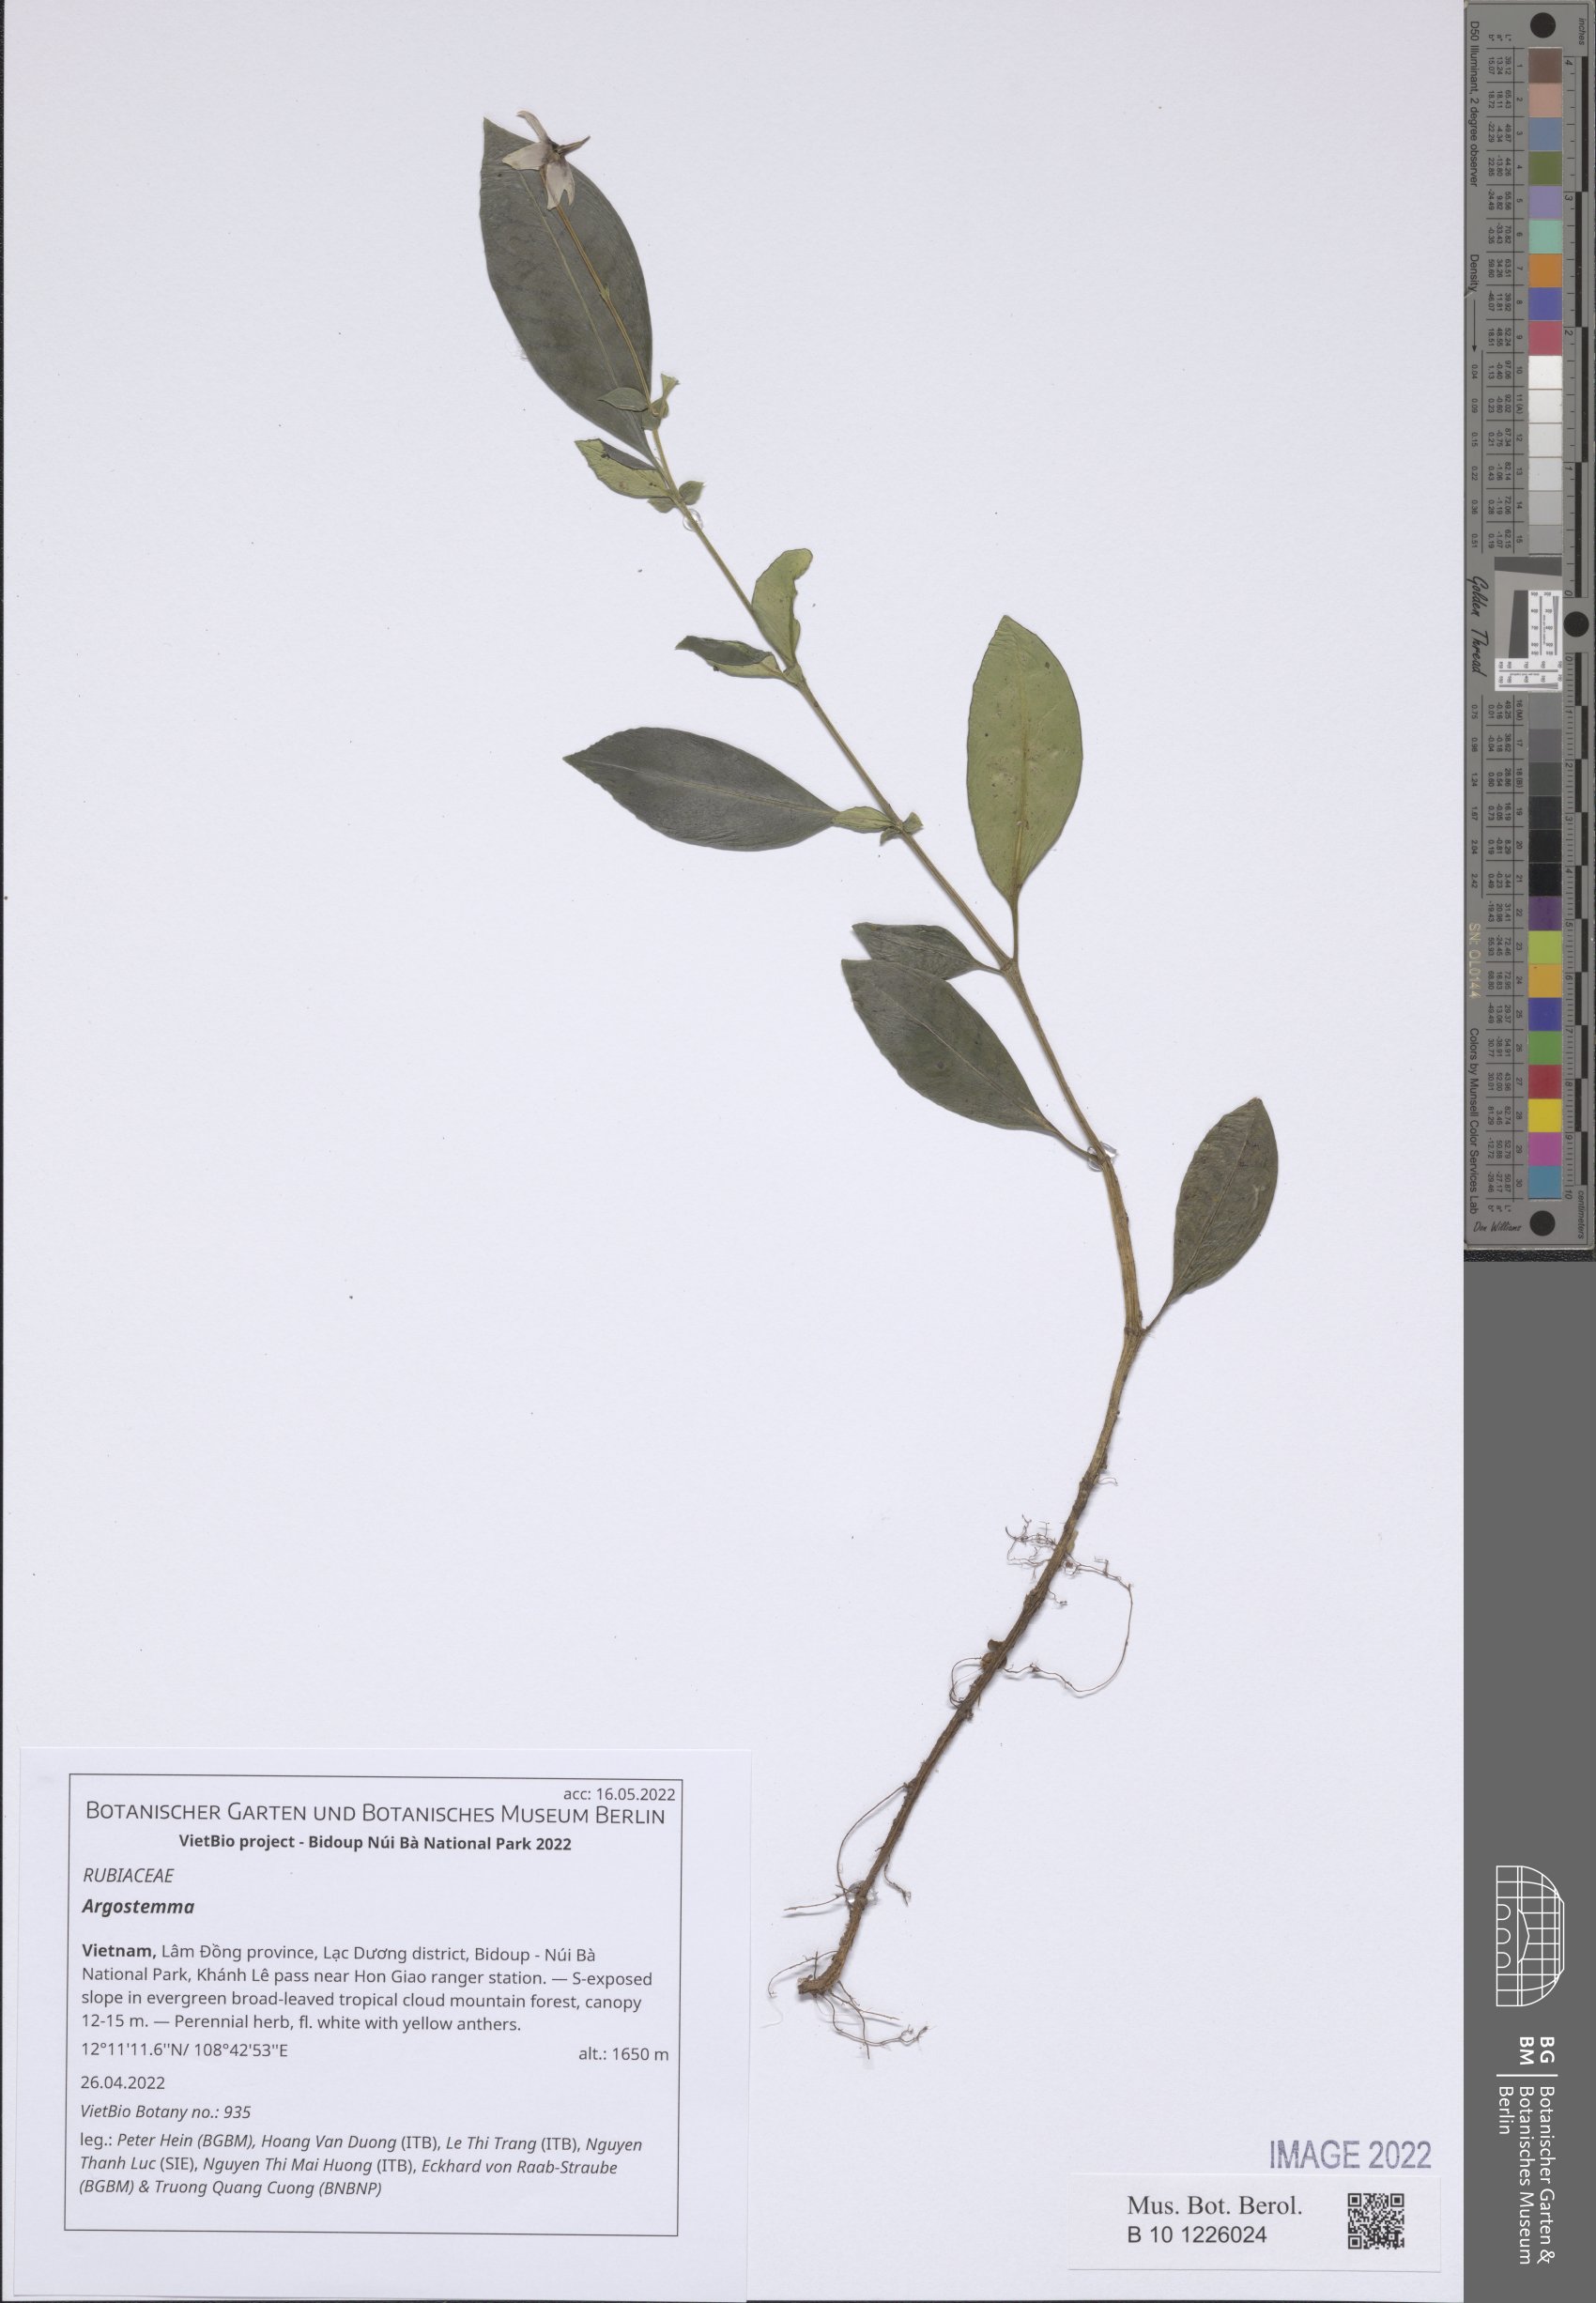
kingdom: Plantae
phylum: Tracheophyta
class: Magnoliopsida
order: Gentianales
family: Rubiaceae
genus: Argostemma
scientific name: Argostemma
